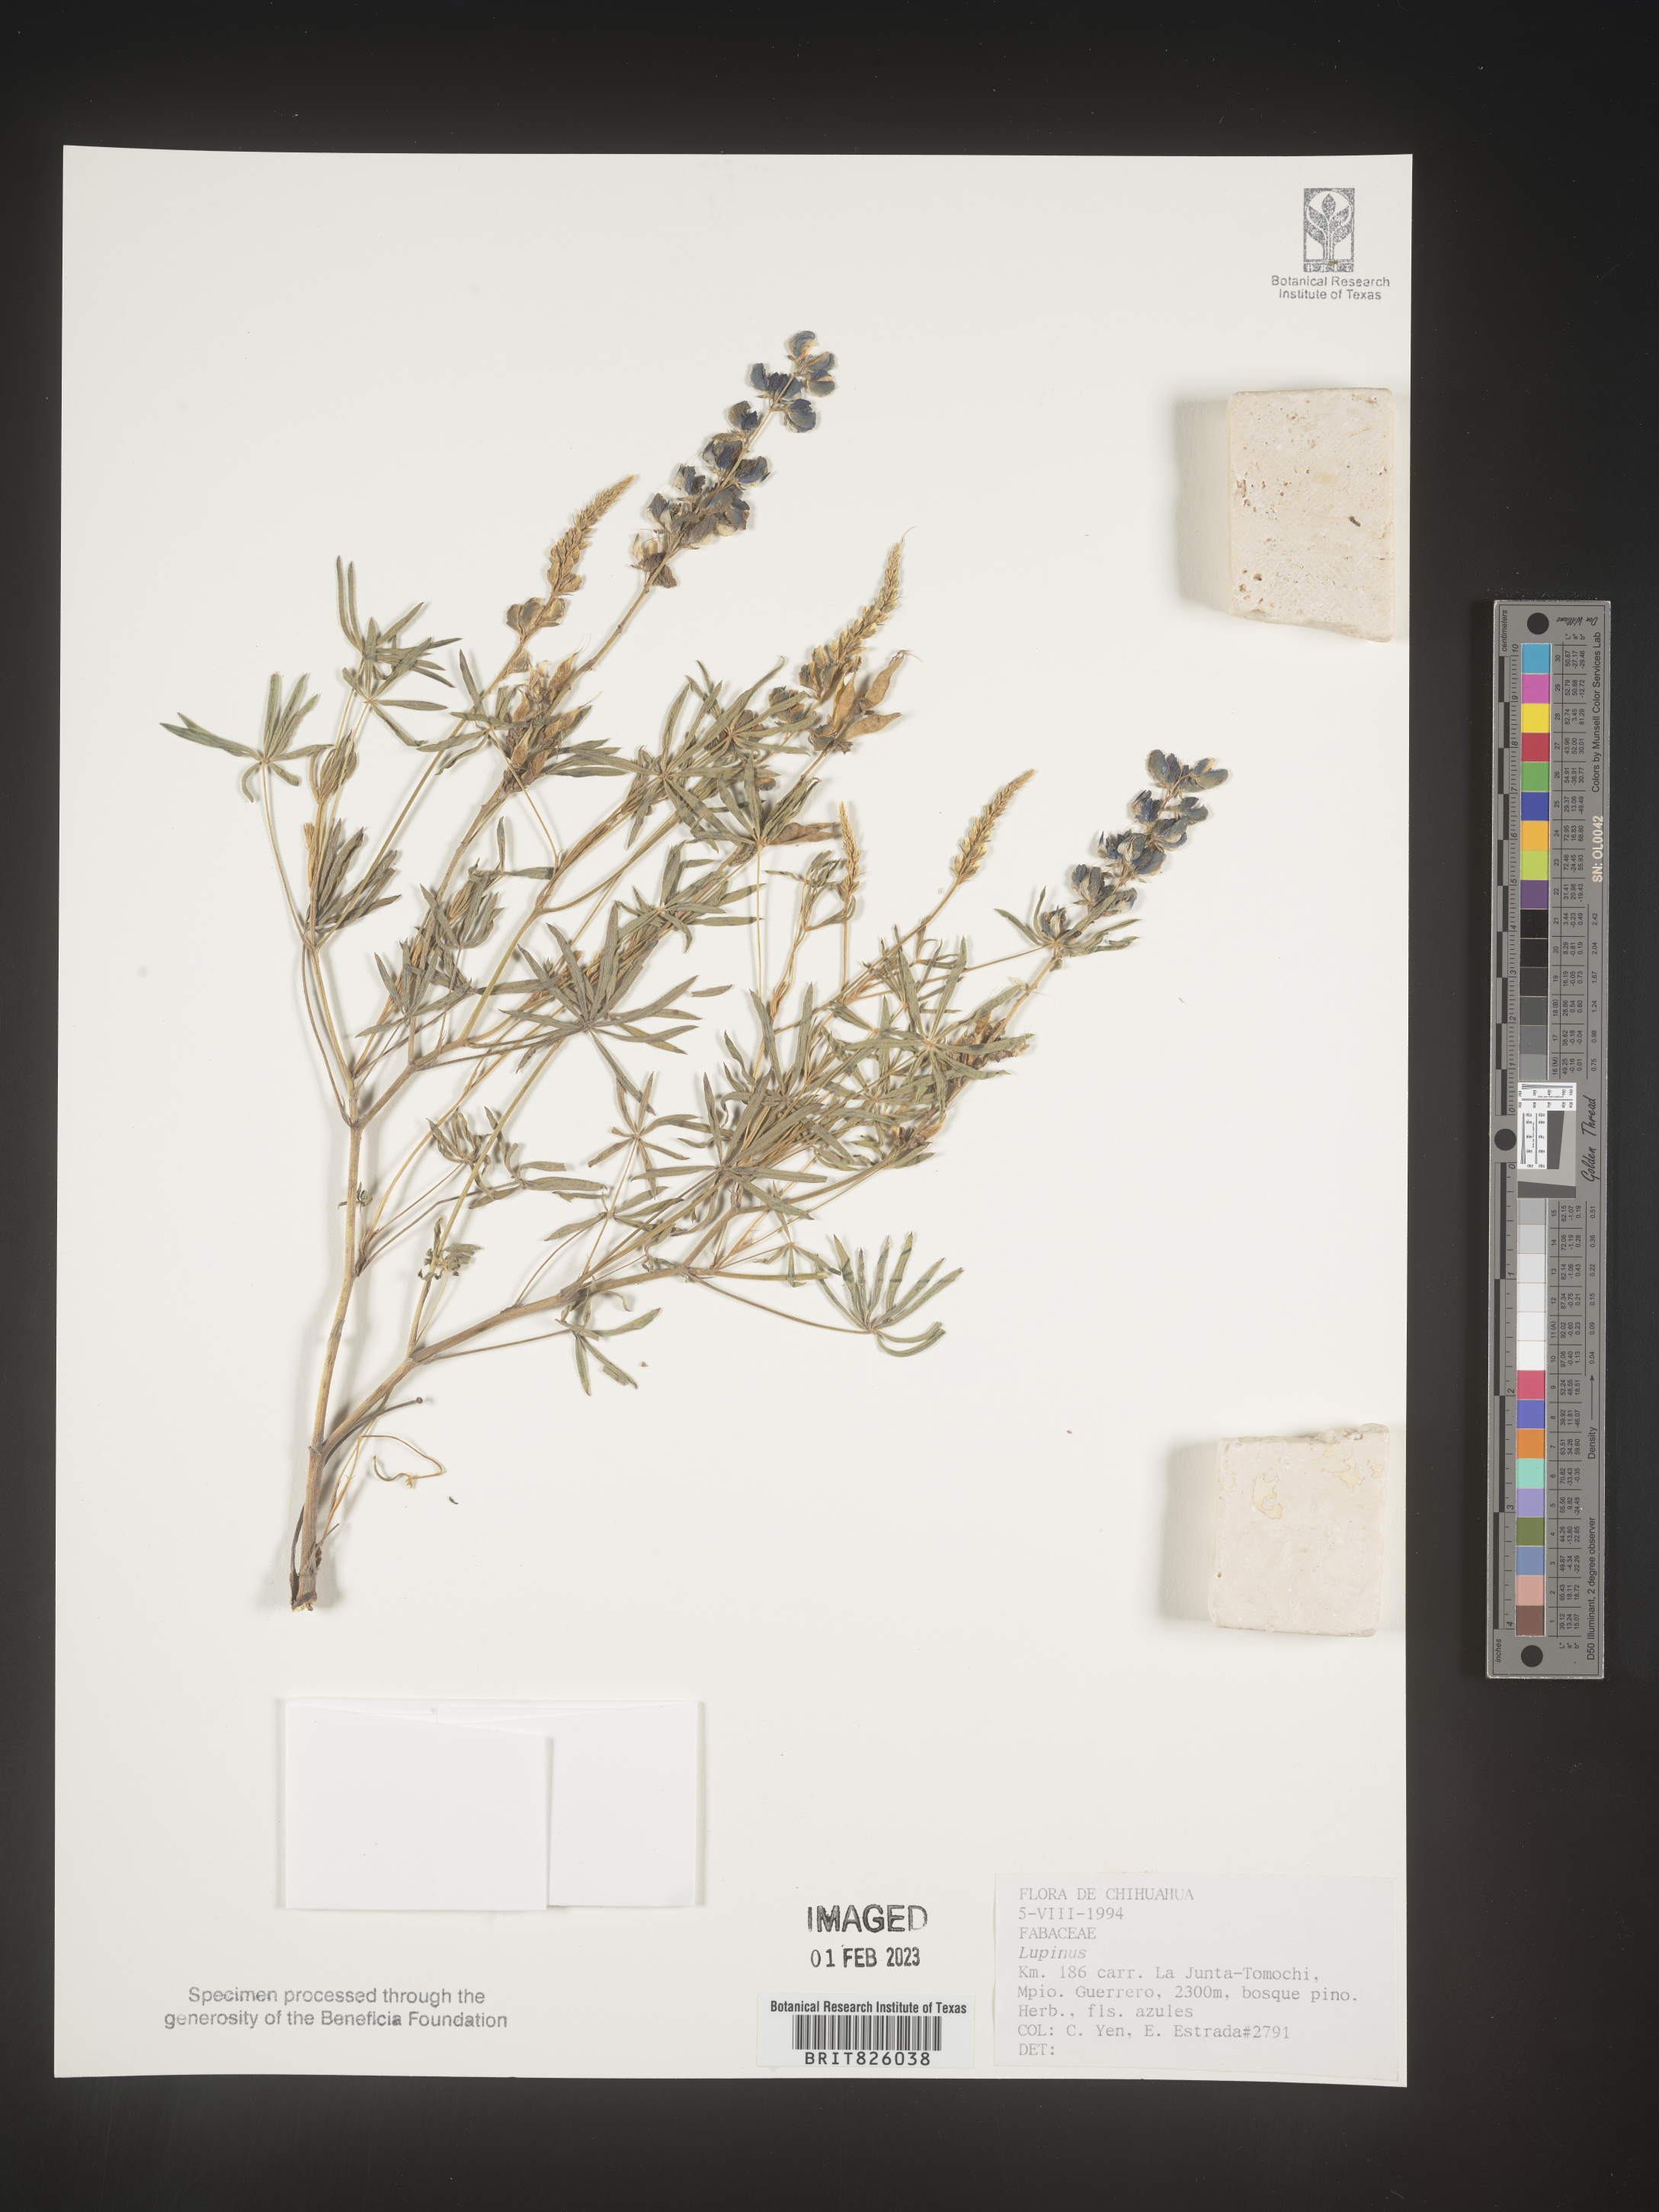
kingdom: Plantae
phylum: Tracheophyta
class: Magnoliopsida
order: Fabales
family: Fabaceae
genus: Lupinus
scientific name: Lupinus
